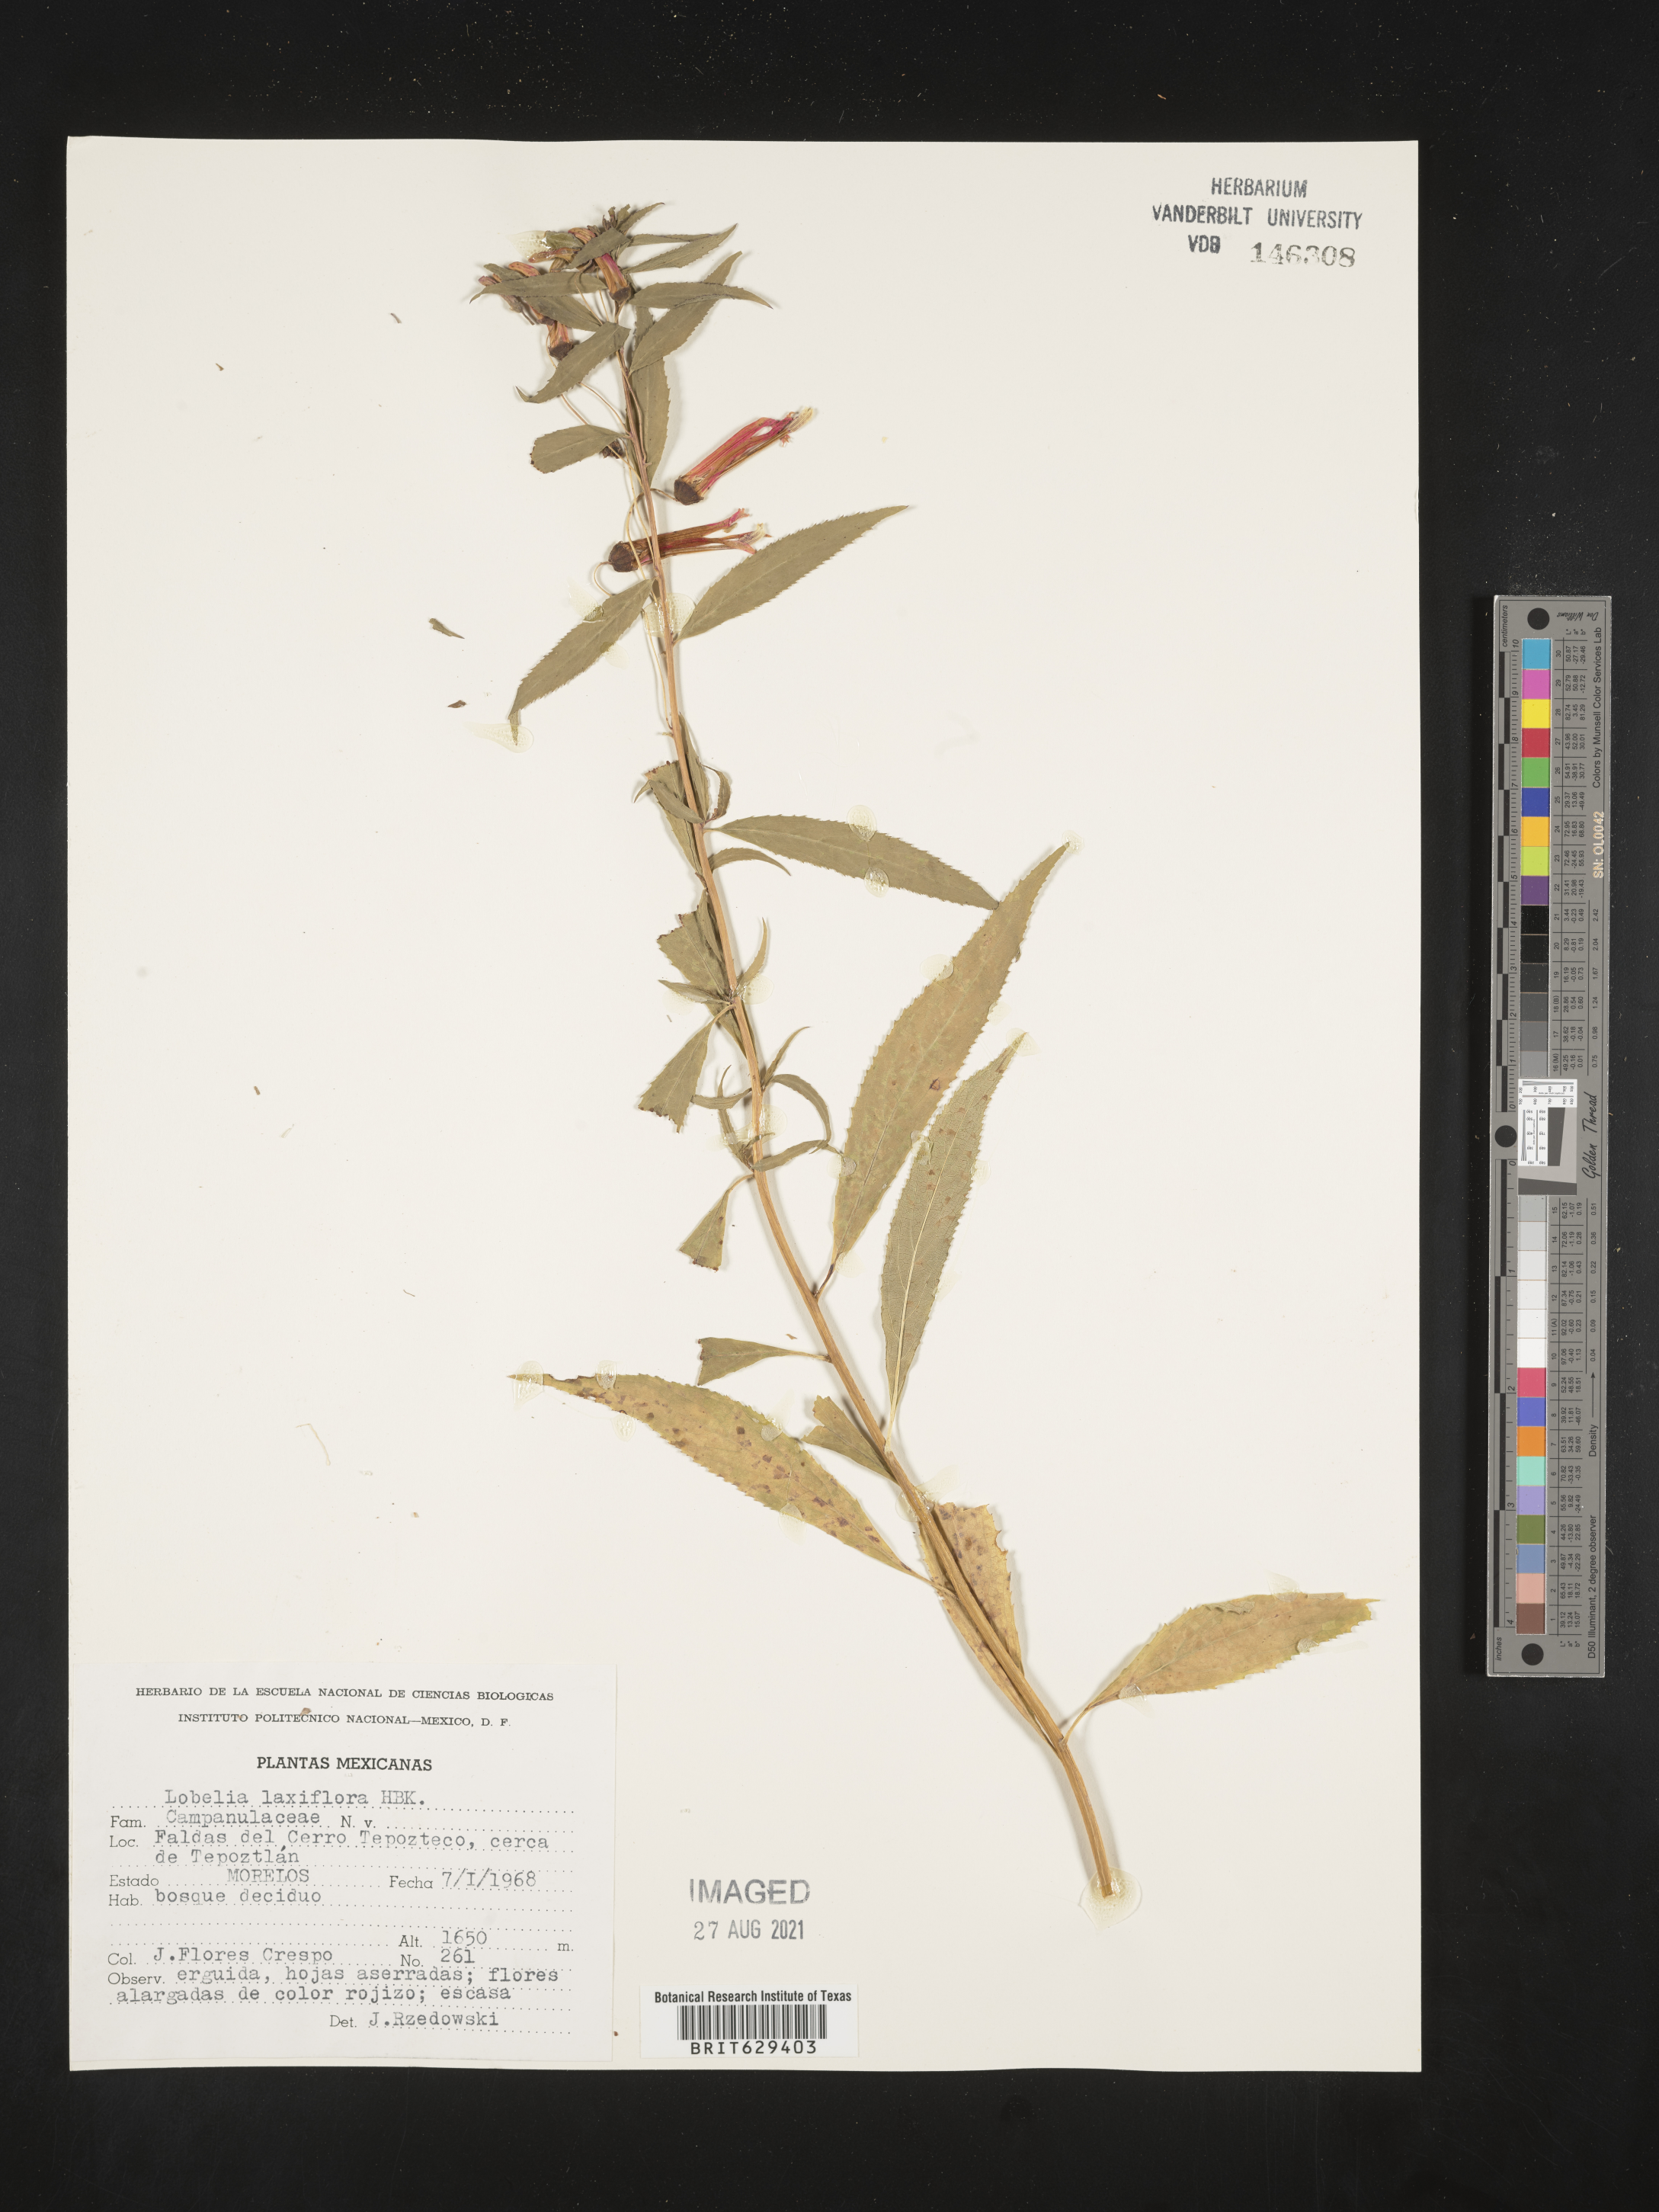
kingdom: Plantae
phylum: Tracheophyta
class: Magnoliopsida
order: Asterales
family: Campanulaceae
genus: Lobelia
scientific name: Lobelia
